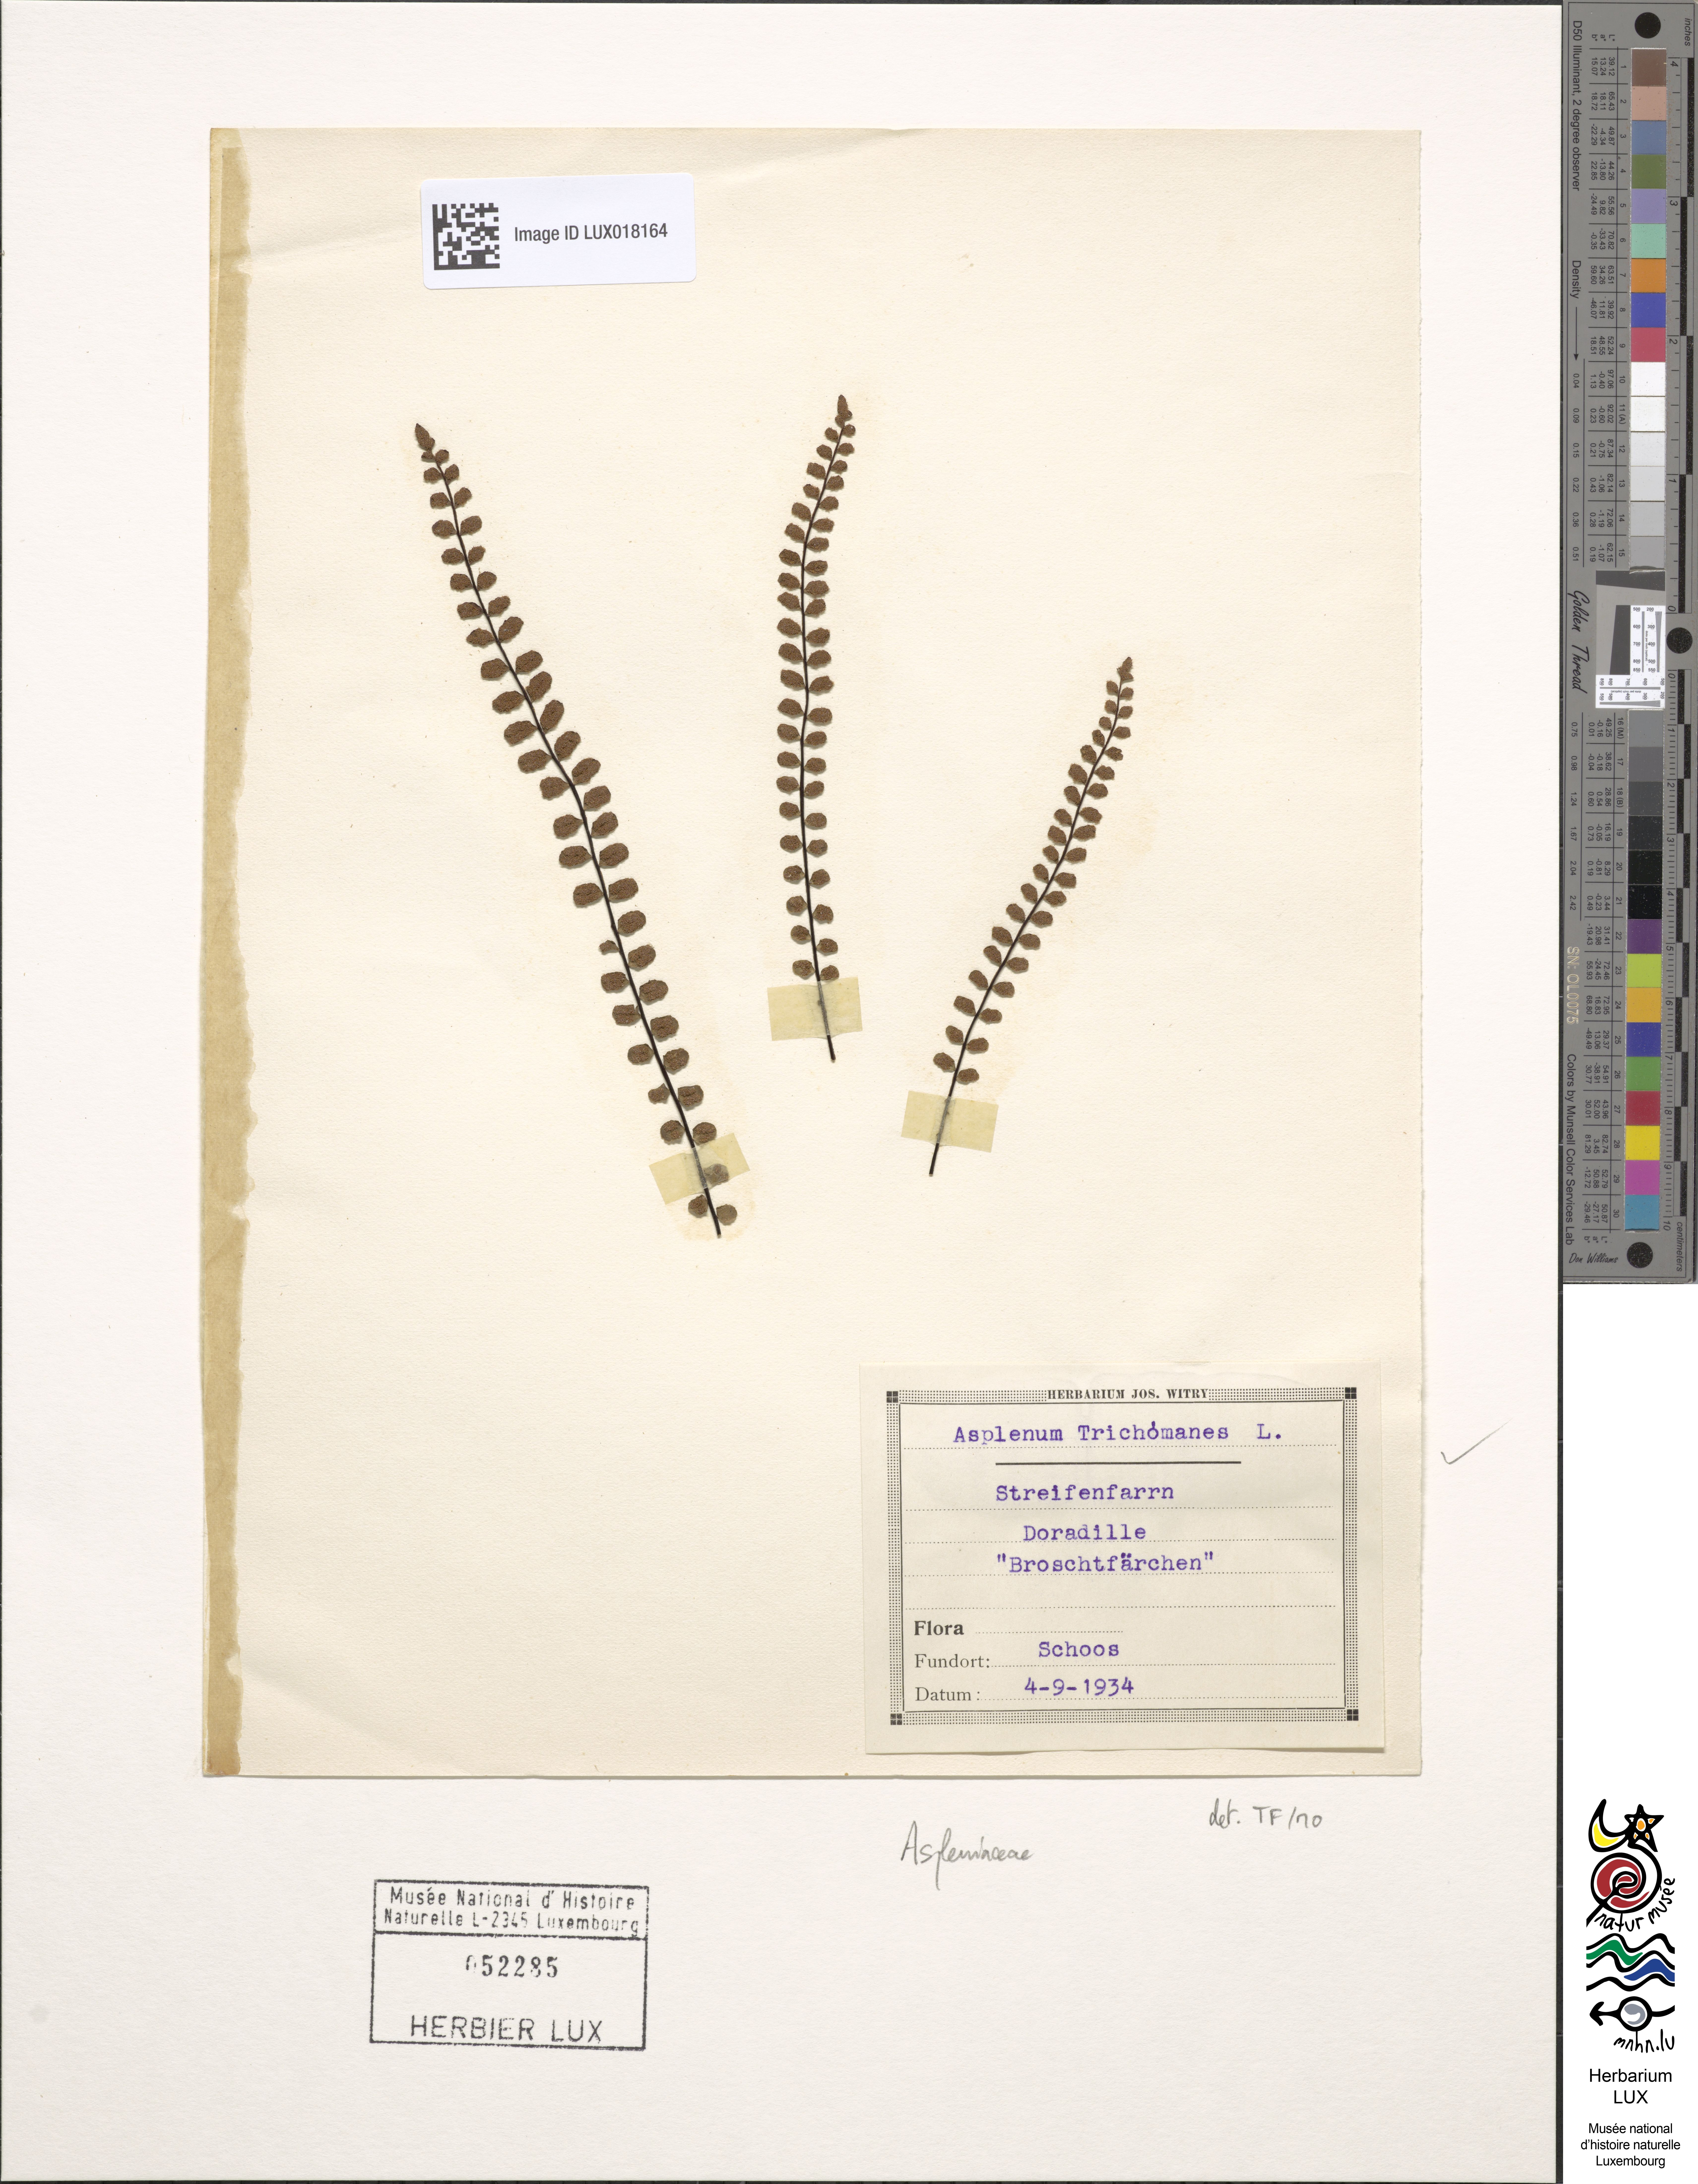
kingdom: Plantae
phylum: Tracheophyta
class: Polypodiopsida
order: Polypodiales
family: Aspleniaceae
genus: Asplenium
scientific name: Asplenium trichomanes
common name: Maidenhair spleenwort
